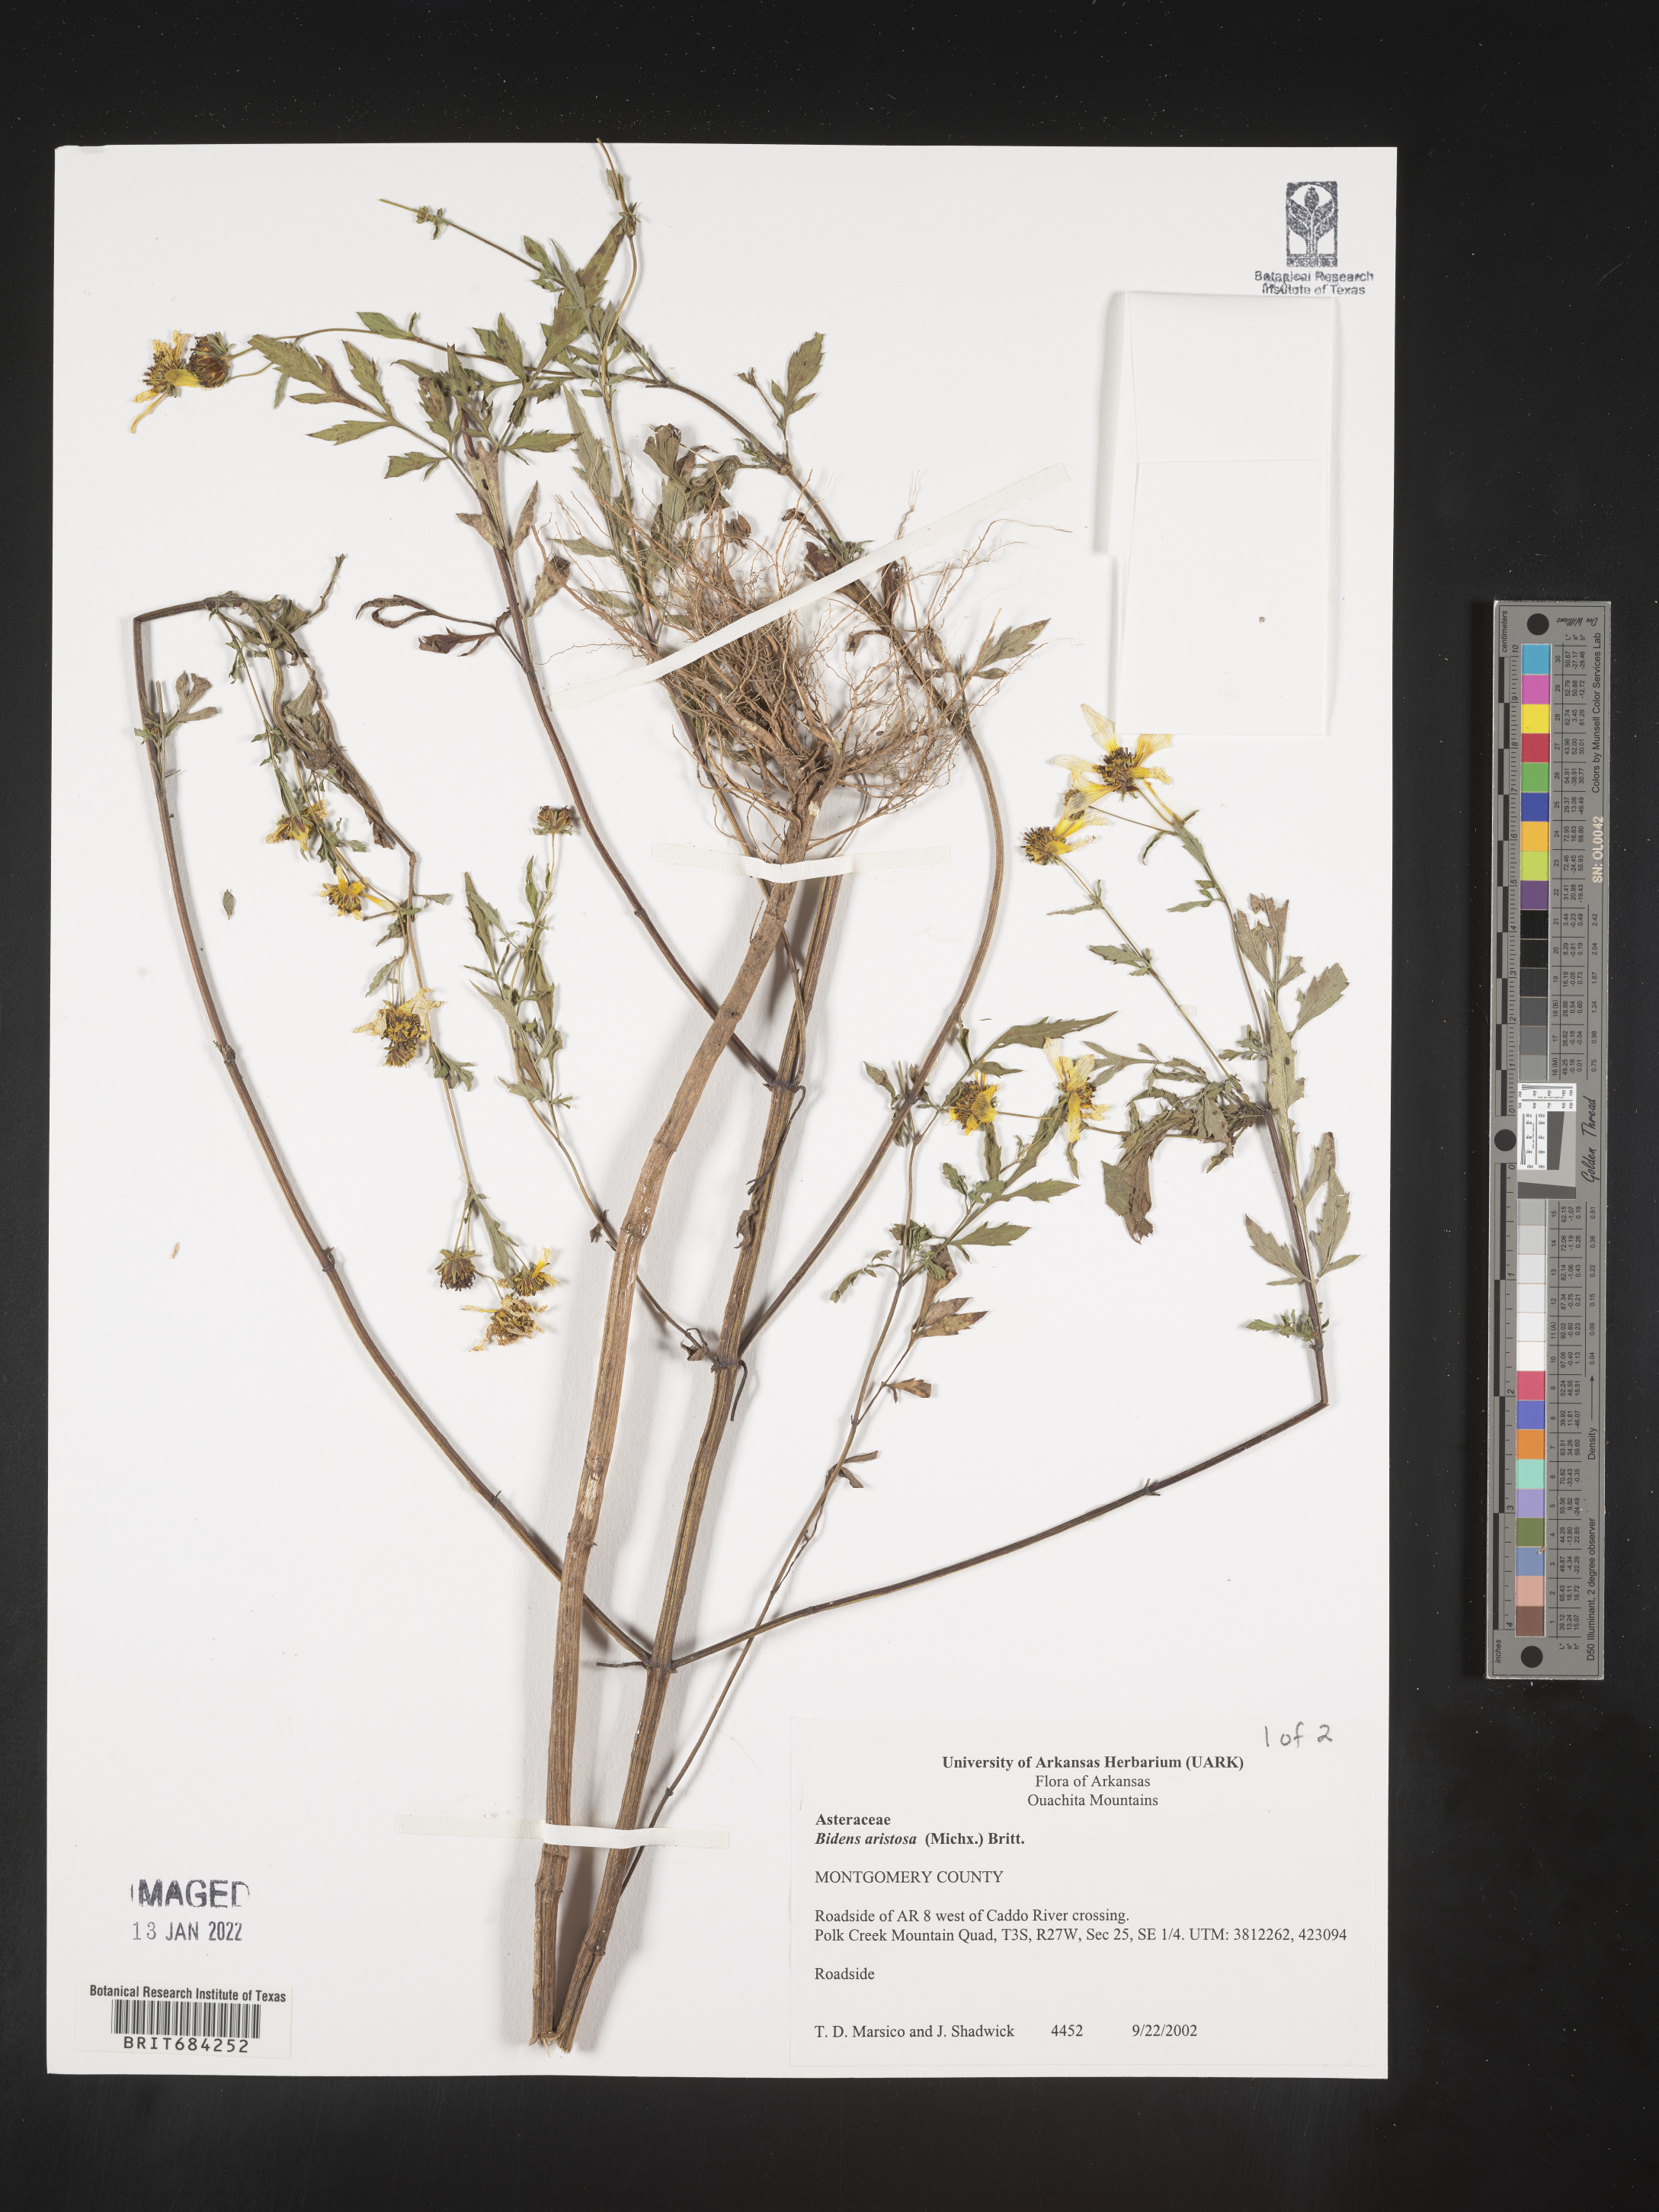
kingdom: Plantae
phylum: Tracheophyta
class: Magnoliopsida
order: Asterales
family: Asteraceae
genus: Bidens
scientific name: Bidens aristosa
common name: Western tickseed
